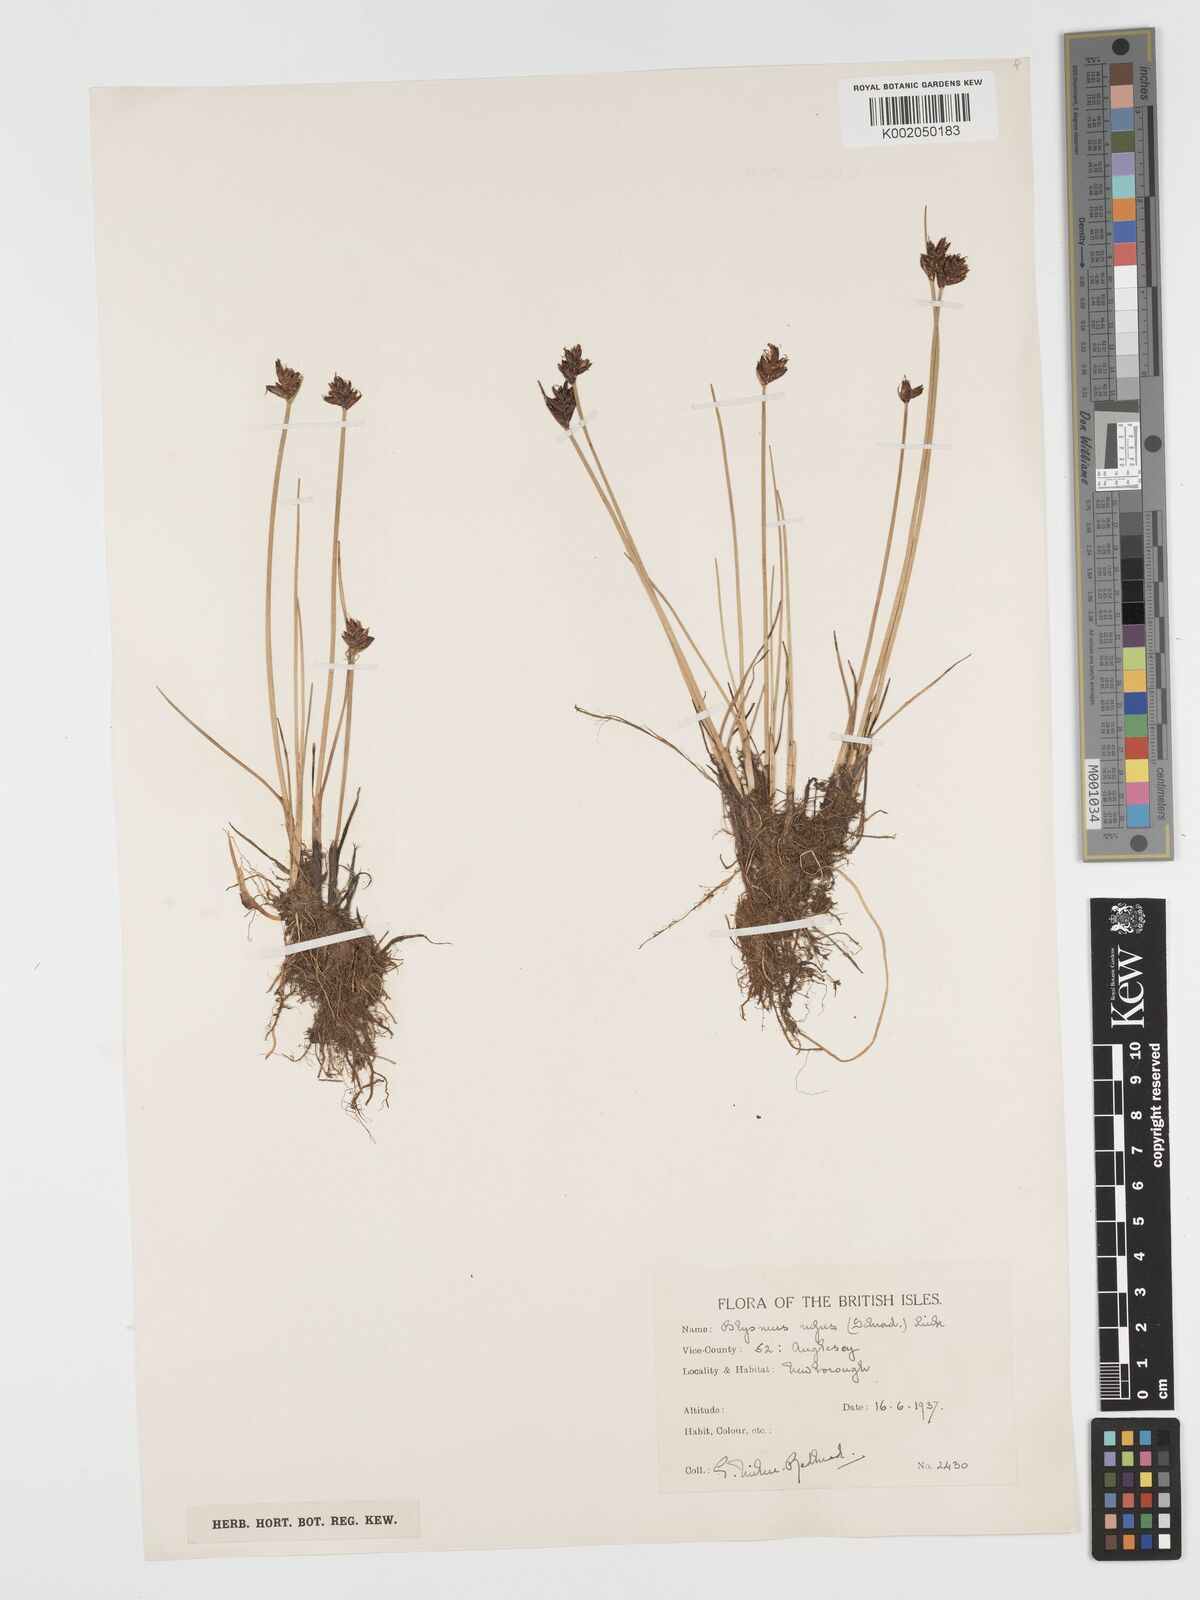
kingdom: Plantae
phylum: Tracheophyta
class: Liliopsida
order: Poales
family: Cyperaceae
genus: Blysmus
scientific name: Blysmus rufus
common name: Saltmarsh flat-sedge
